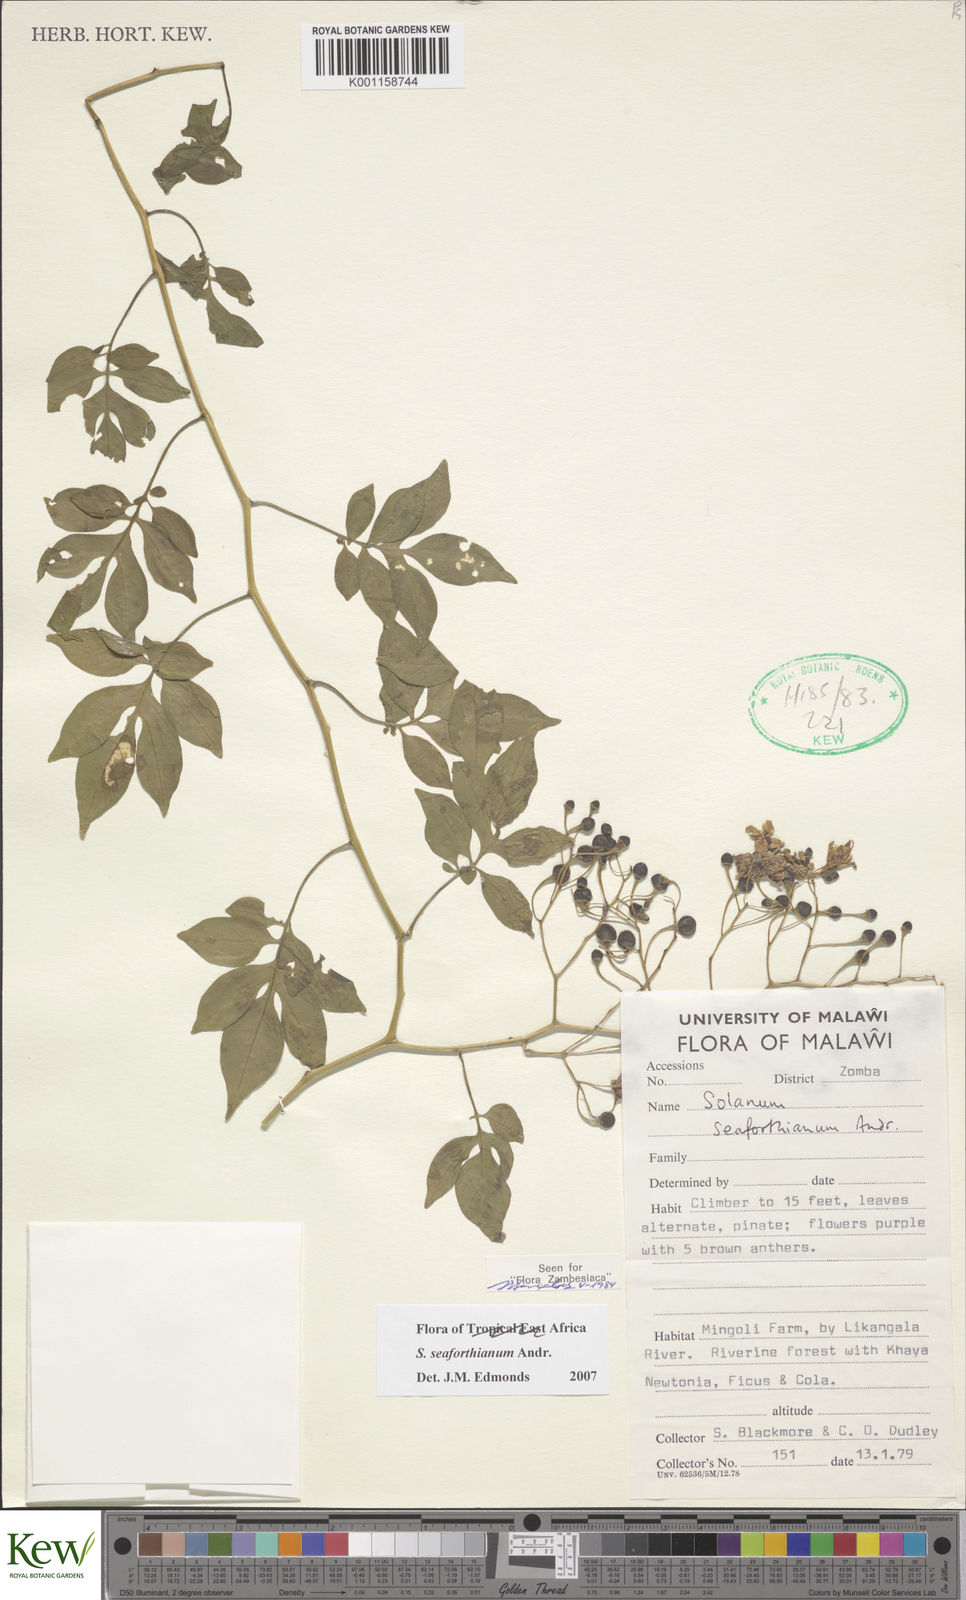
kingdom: Plantae
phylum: Tracheophyta
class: Magnoliopsida
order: Solanales
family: Solanaceae
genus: Solanum
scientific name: Solanum seaforthianum
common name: Brazilian nightshade
